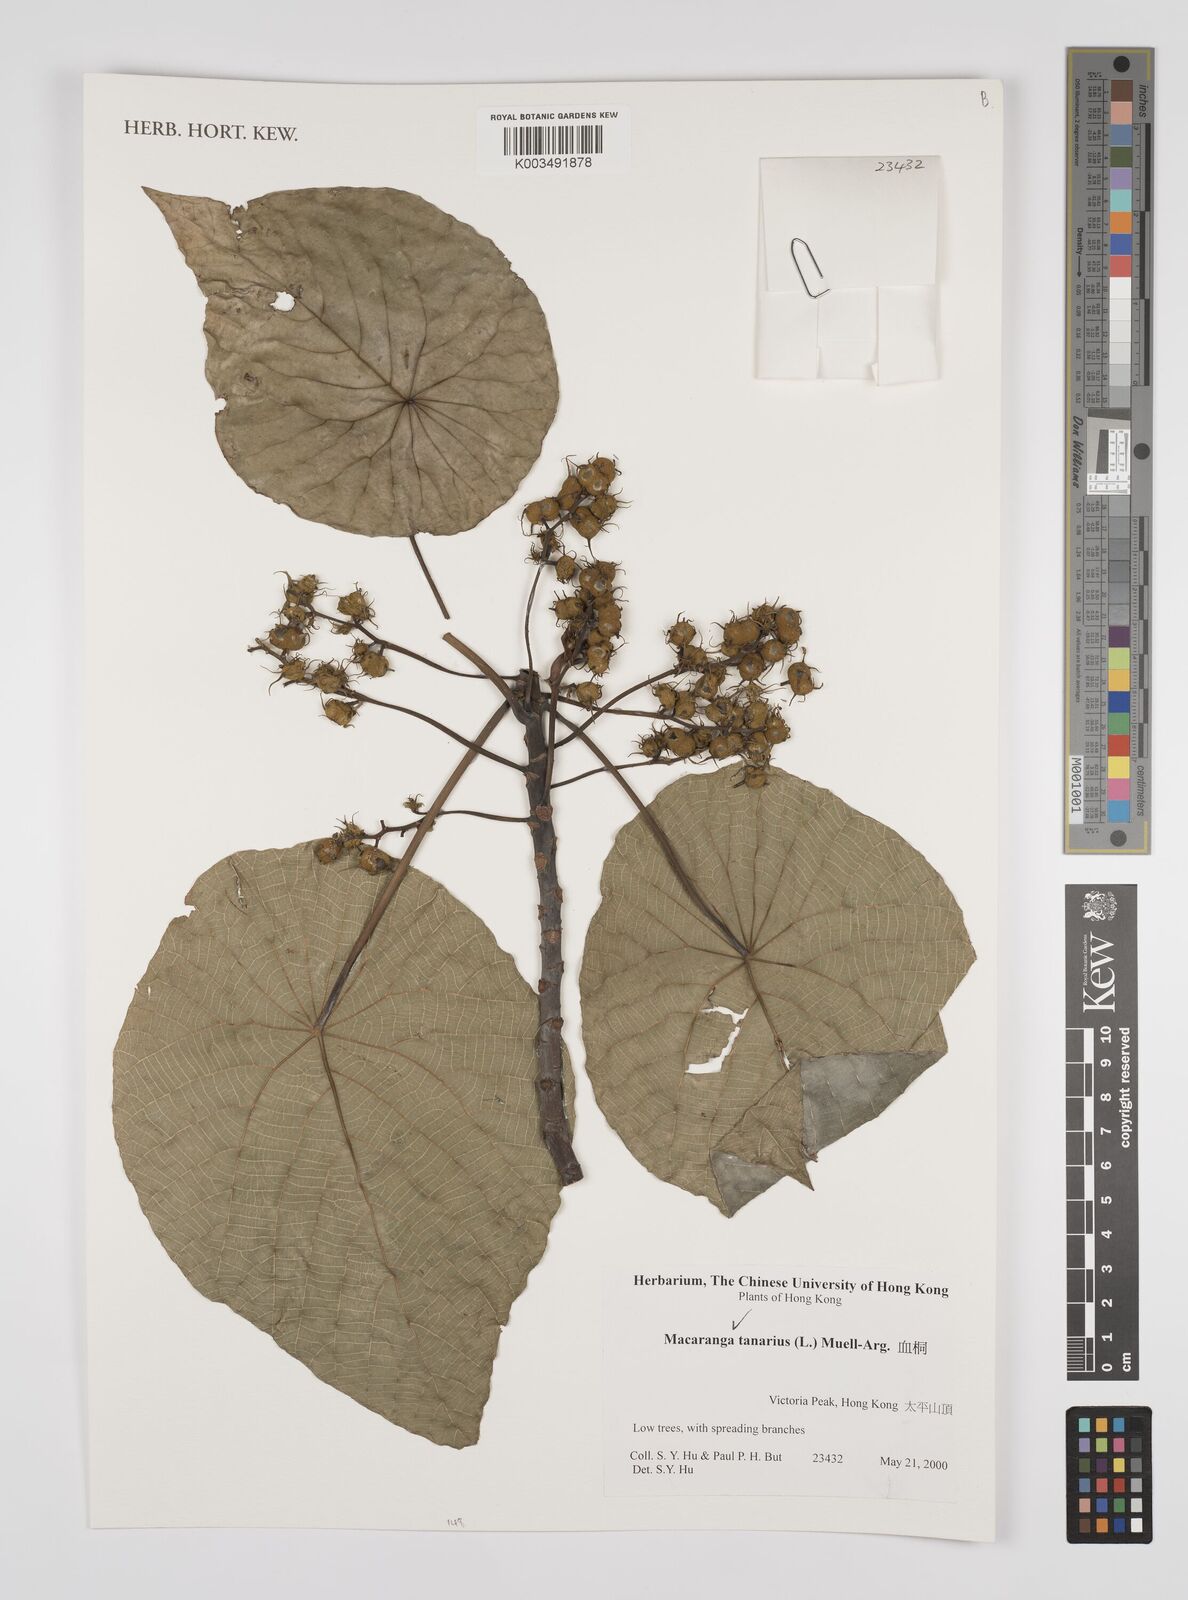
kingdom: Plantae
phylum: Tracheophyta
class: Magnoliopsida
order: Malpighiales
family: Euphorbiaceae
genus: Macaranga
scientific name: Macaranga tanarius
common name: Parasol leaf tree
